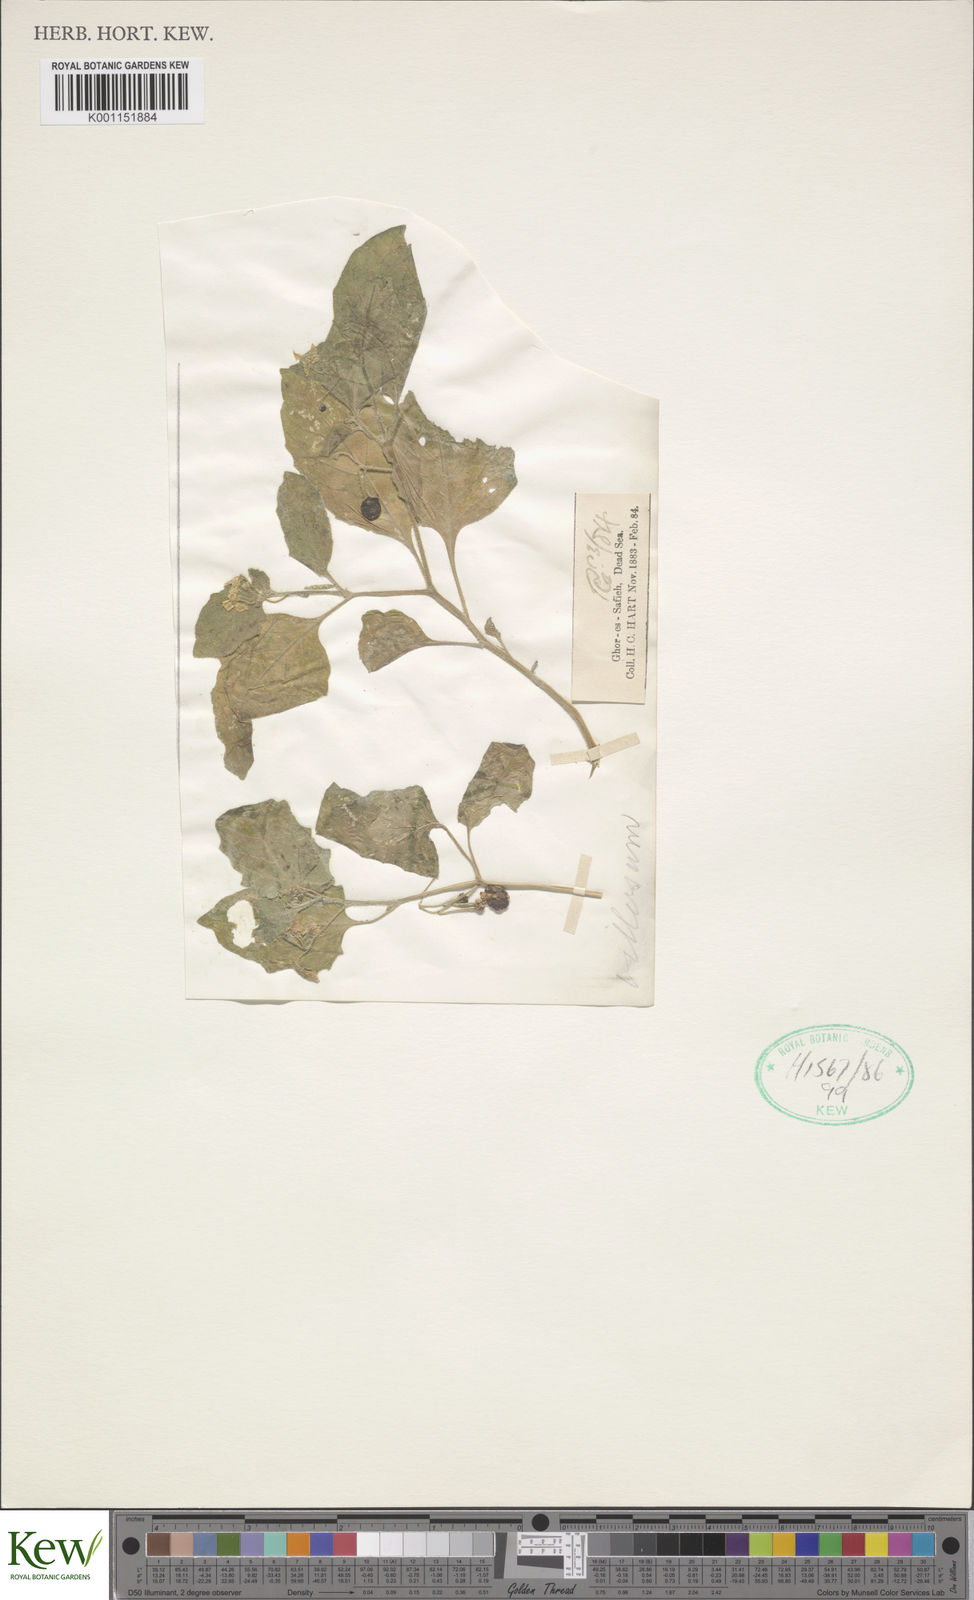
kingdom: Plantae
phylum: Tracheophyta
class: Magnoliopsida
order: Solanales
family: Solanaceae
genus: Solanum
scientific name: Solanum villosum
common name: Red nightshade
